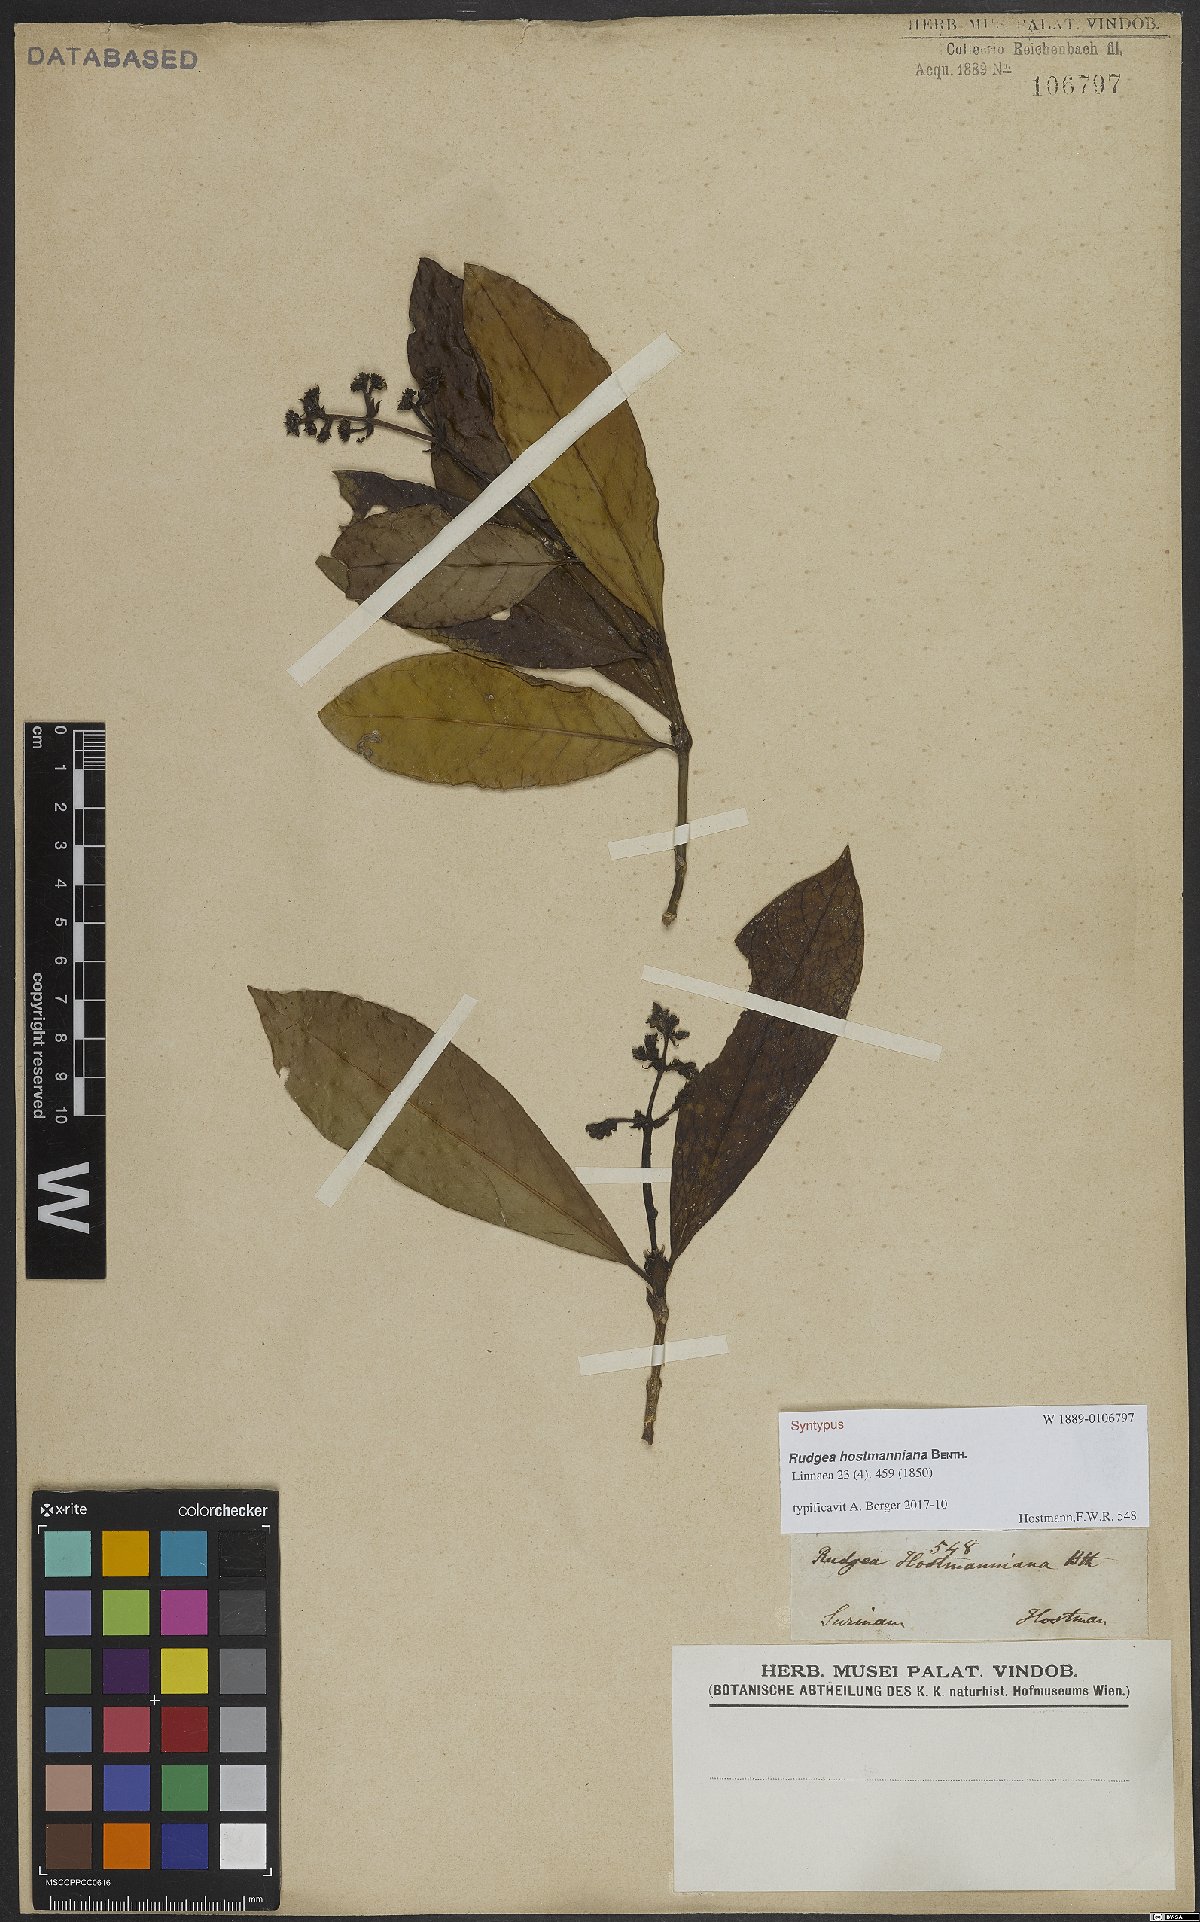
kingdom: Plantae
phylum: Tracheophyta
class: Magnoliopsida
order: Gentianales
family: Rubiaceae
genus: Rudgea
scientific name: Rudgea hostmanniana
